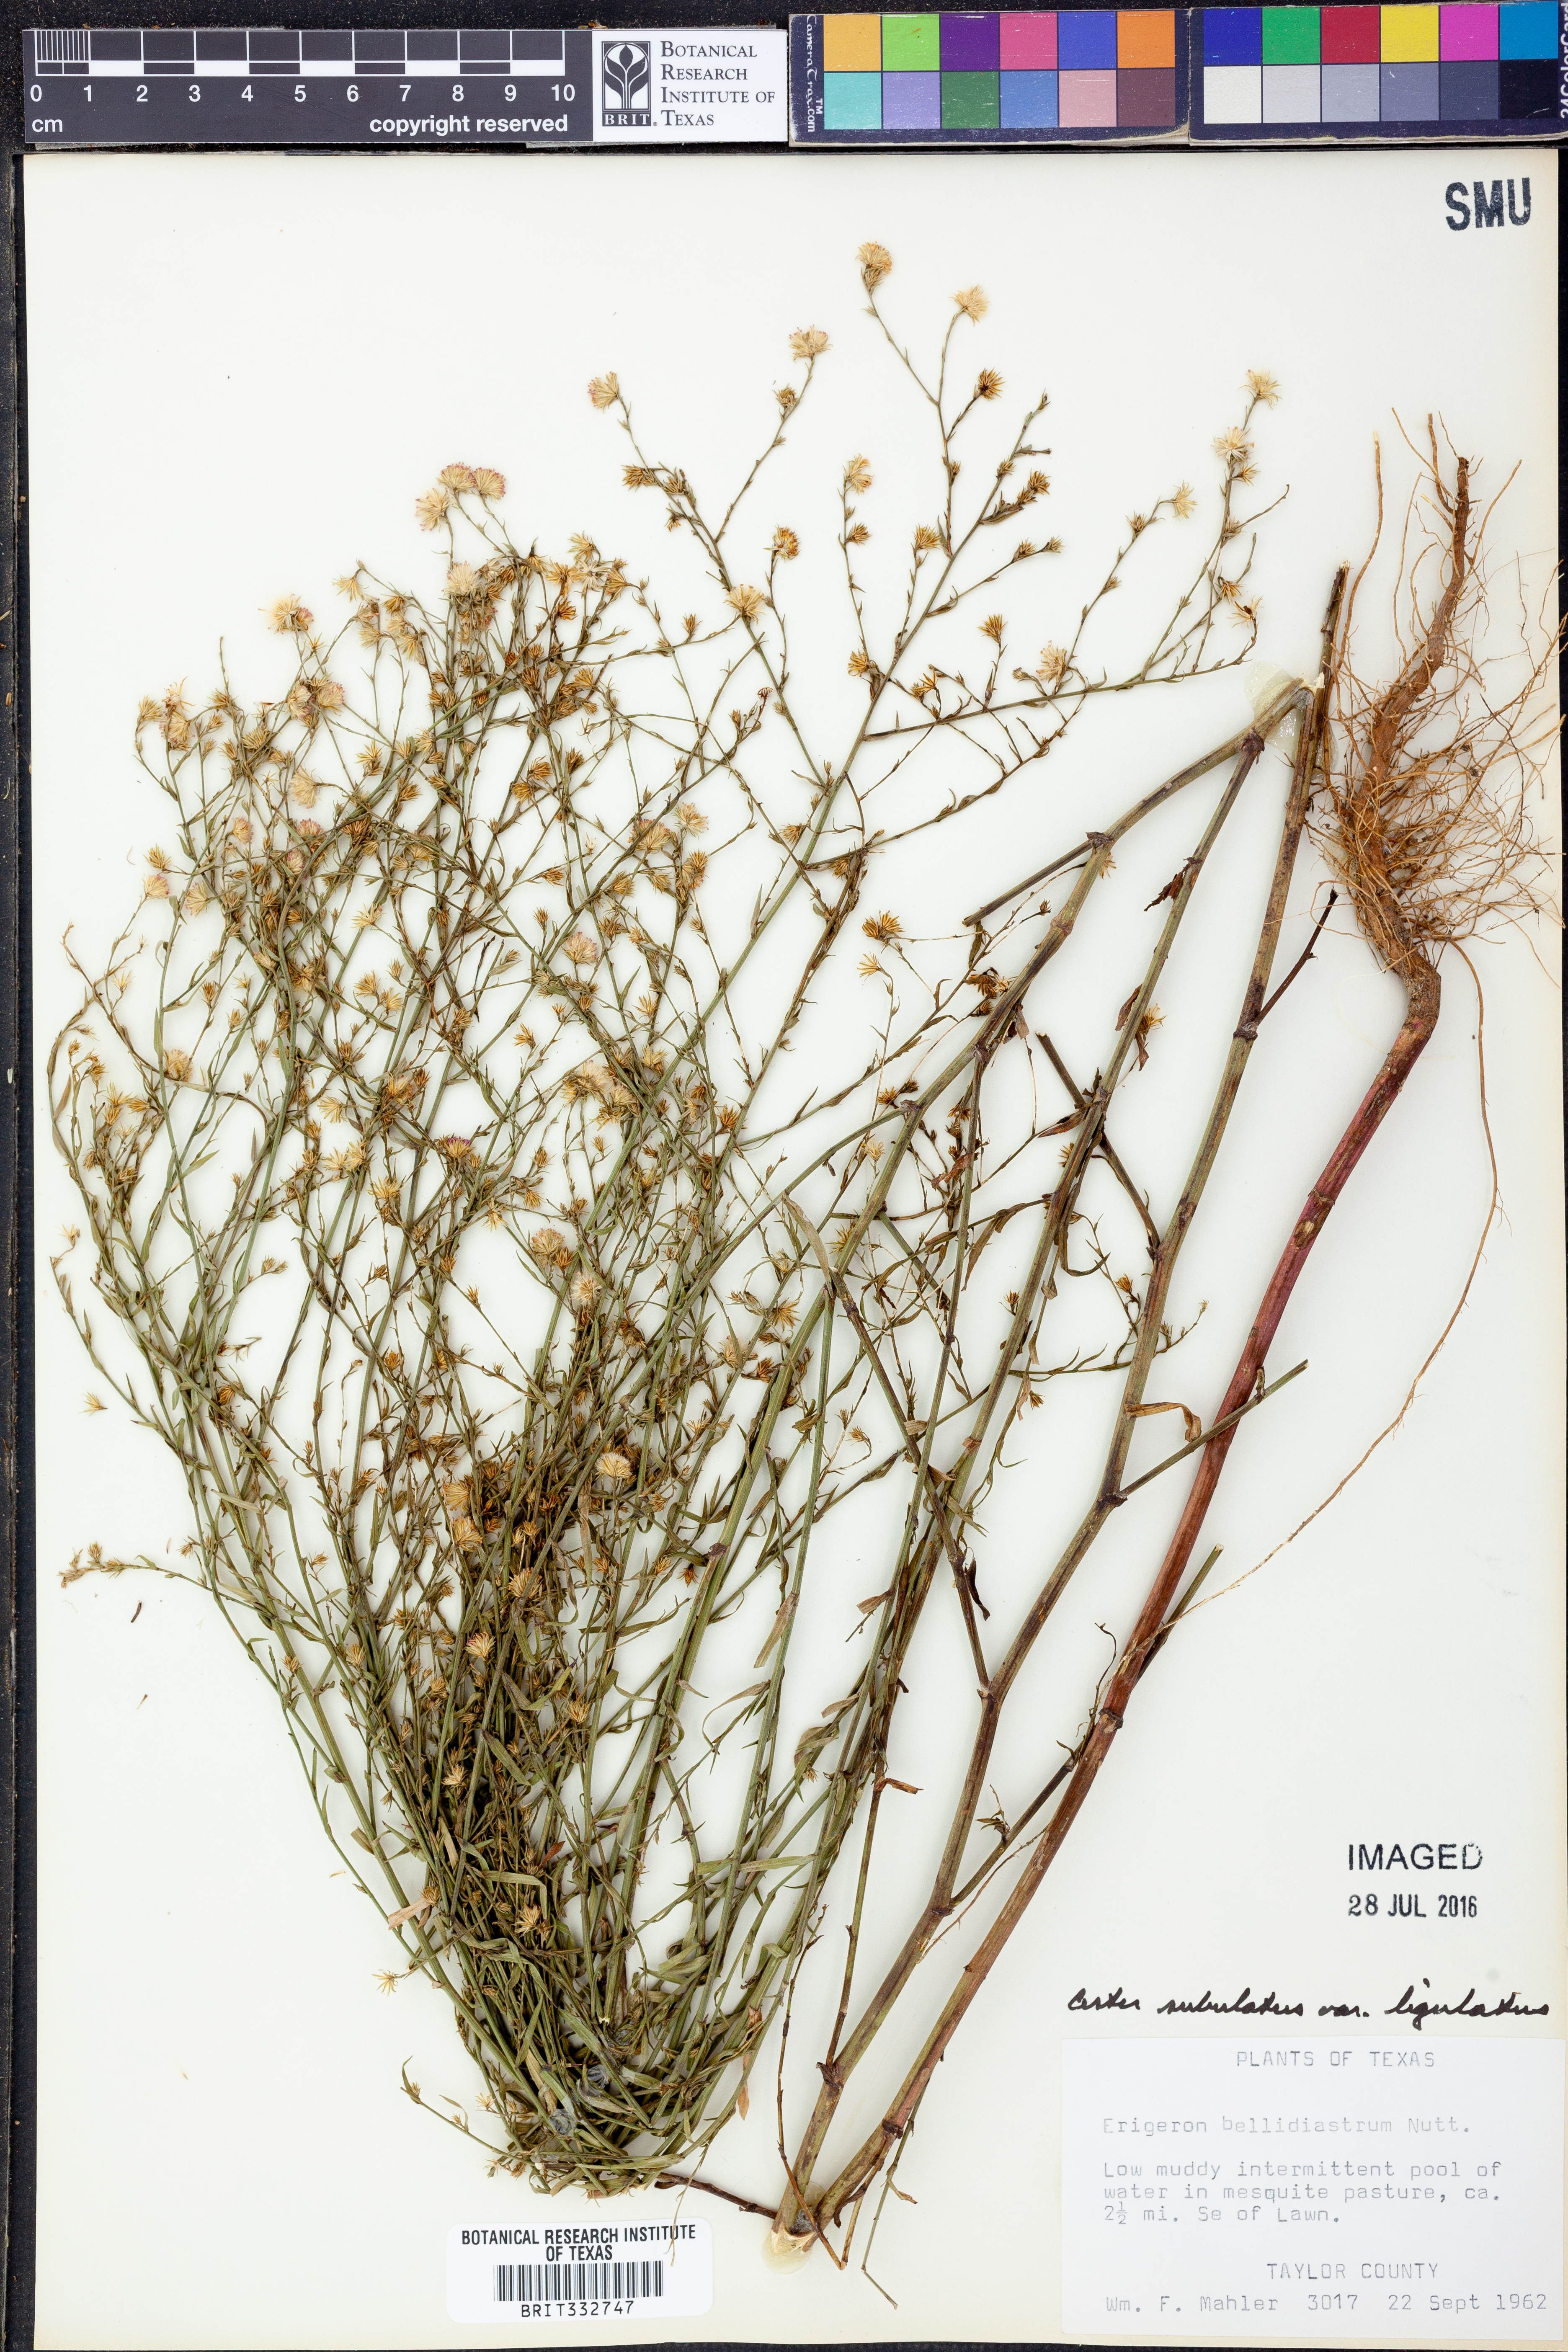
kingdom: Plantae
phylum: Tracheophyta
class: Magnoliopsida
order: Asterales
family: Asteraceae
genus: Symphyotrichum
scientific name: Symphyotrichum divaricatum
